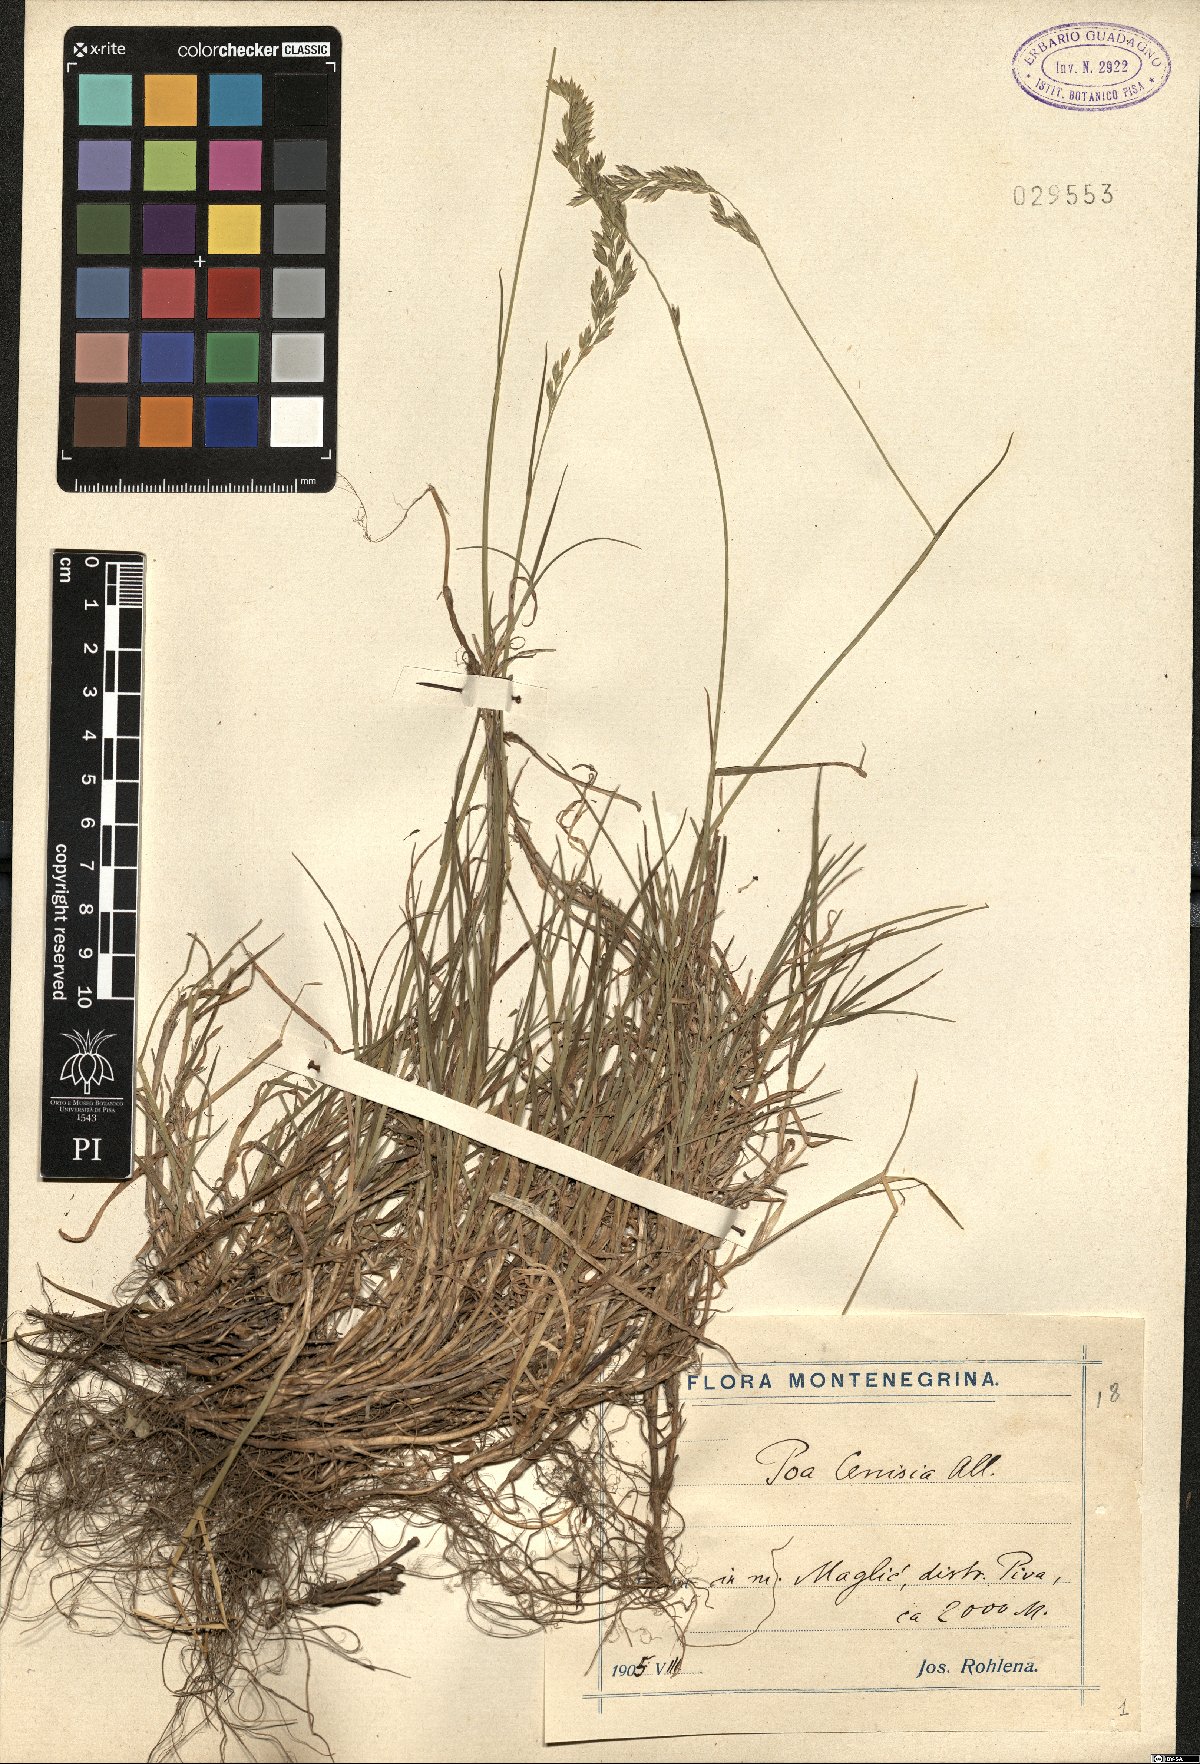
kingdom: Plantae
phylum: Tracheophyta
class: Liliopsida
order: Poales
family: Poaceae
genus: Poa
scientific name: Poa cenisia
